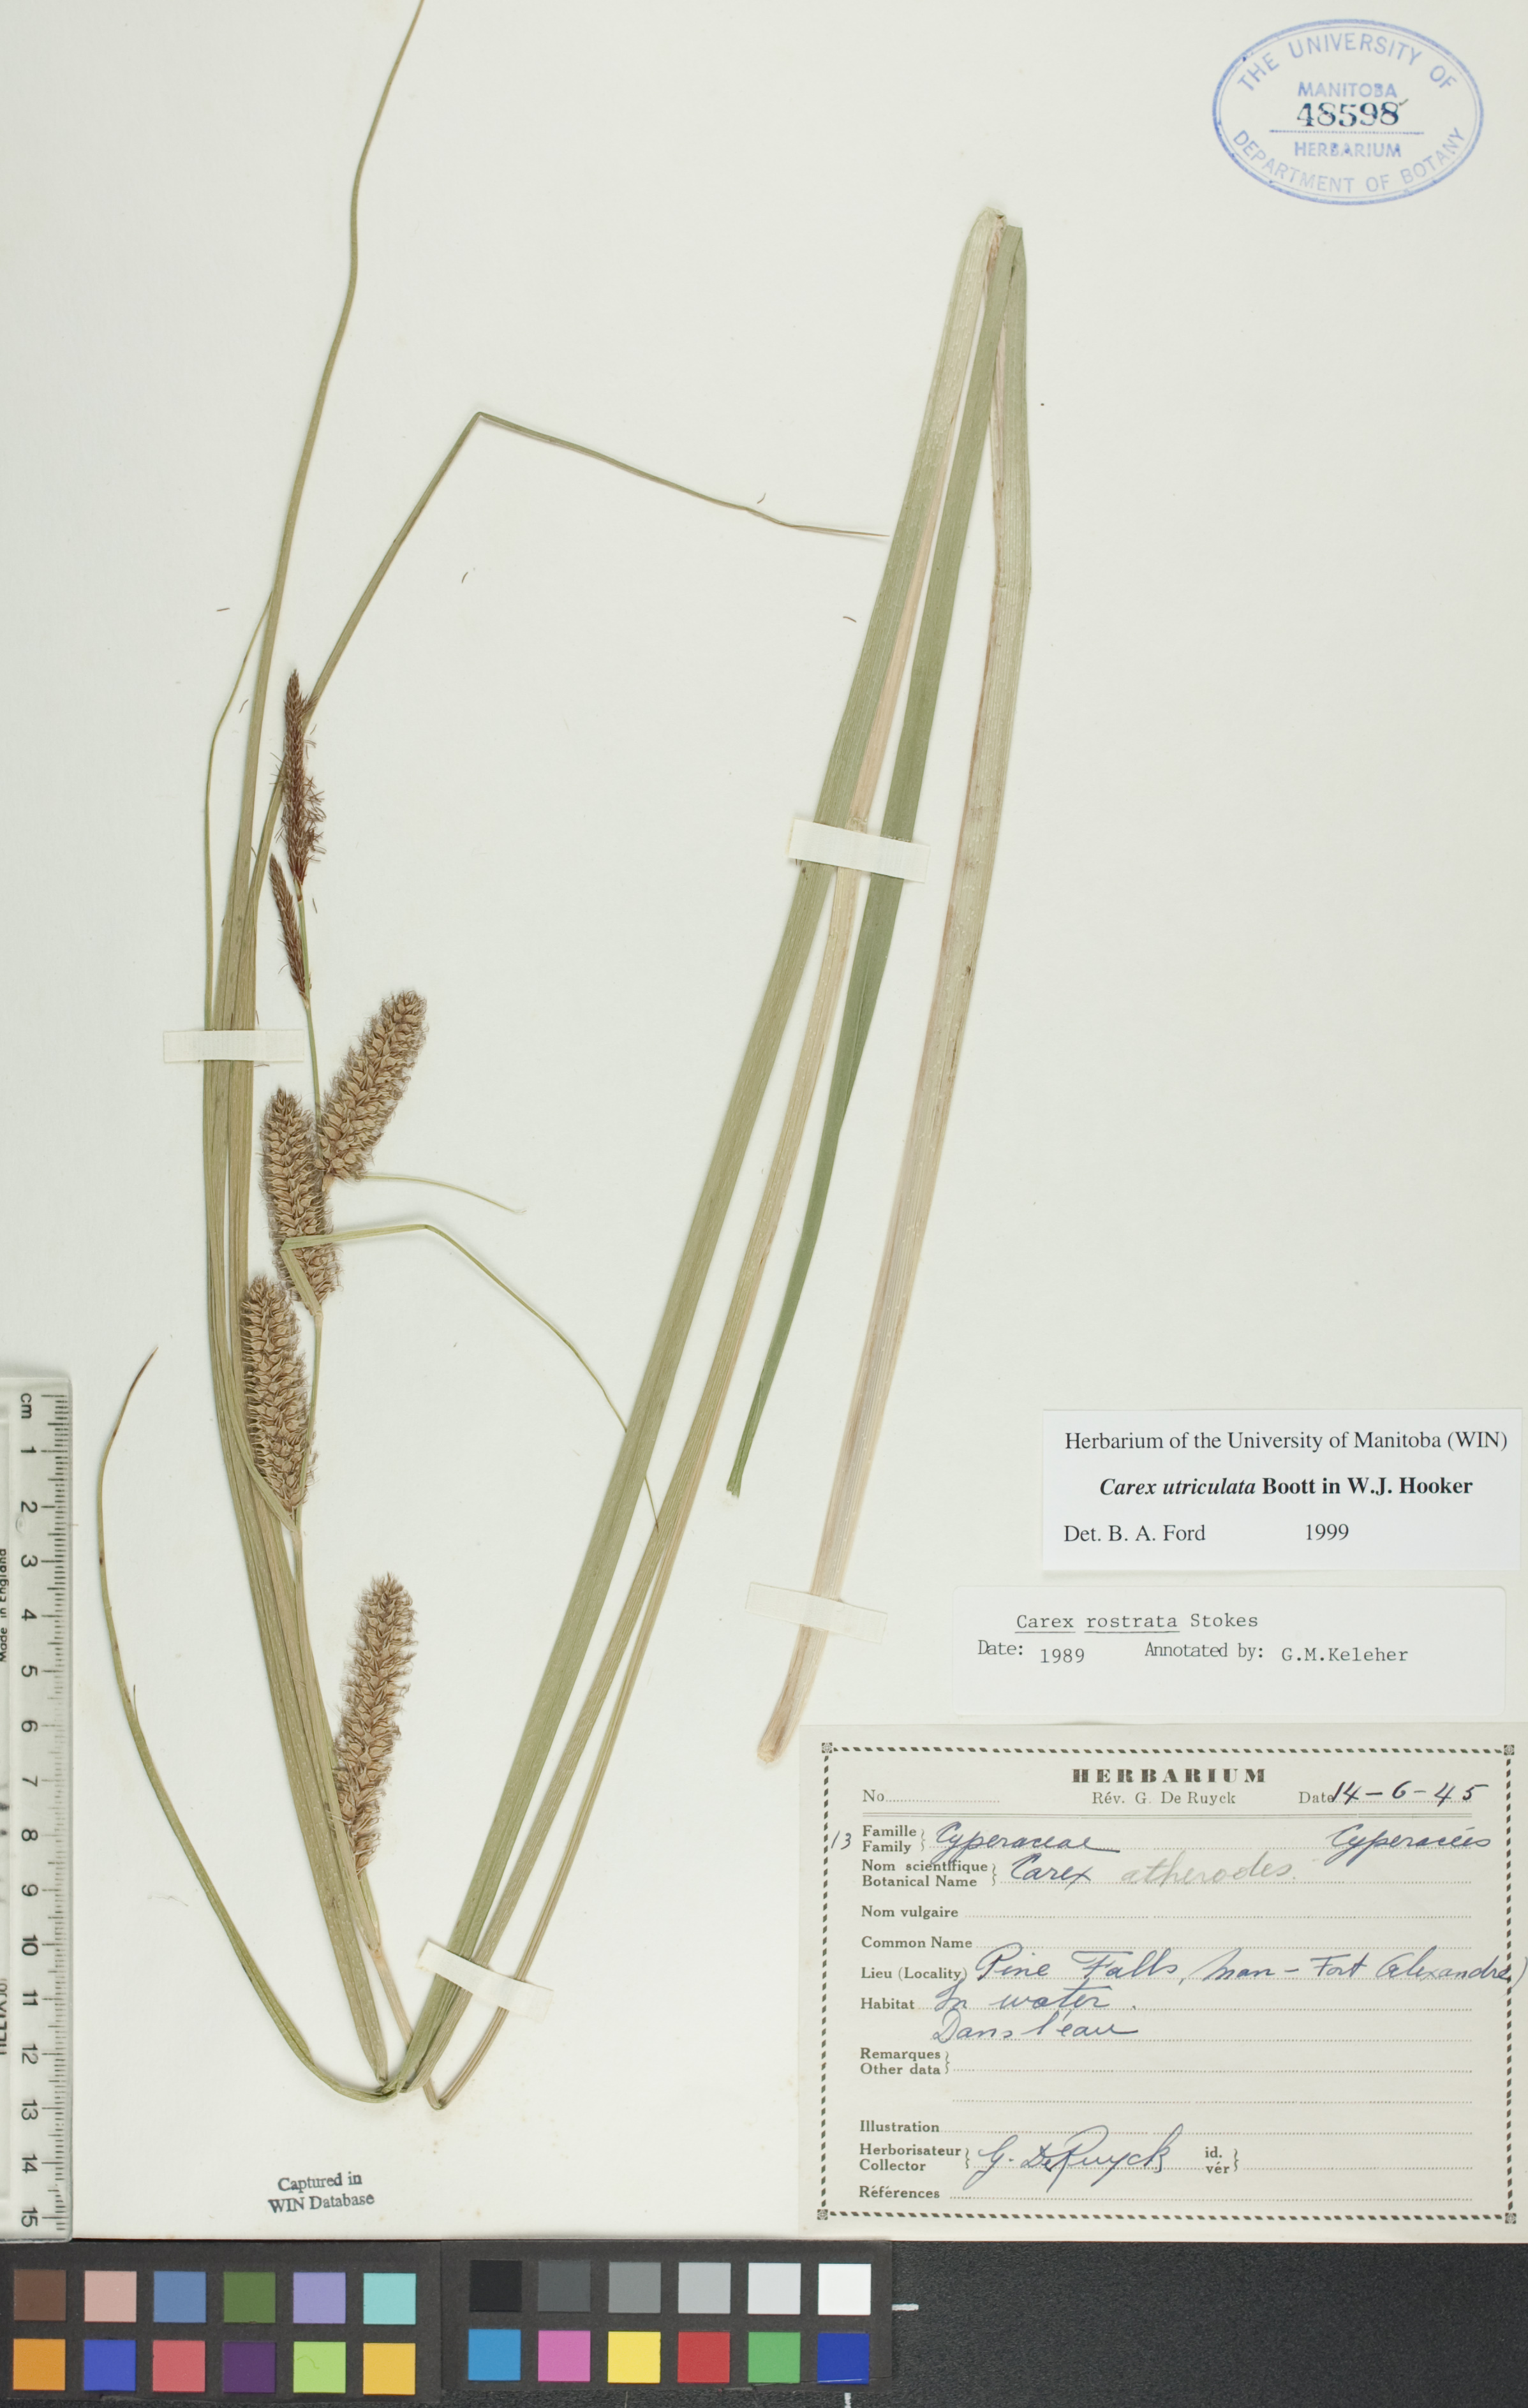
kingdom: Plantae
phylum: Tracheophyta
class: Liliopsida
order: Poales
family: Cyperaceae
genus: Carex
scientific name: Carex utriculata
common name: Beaked sedge
